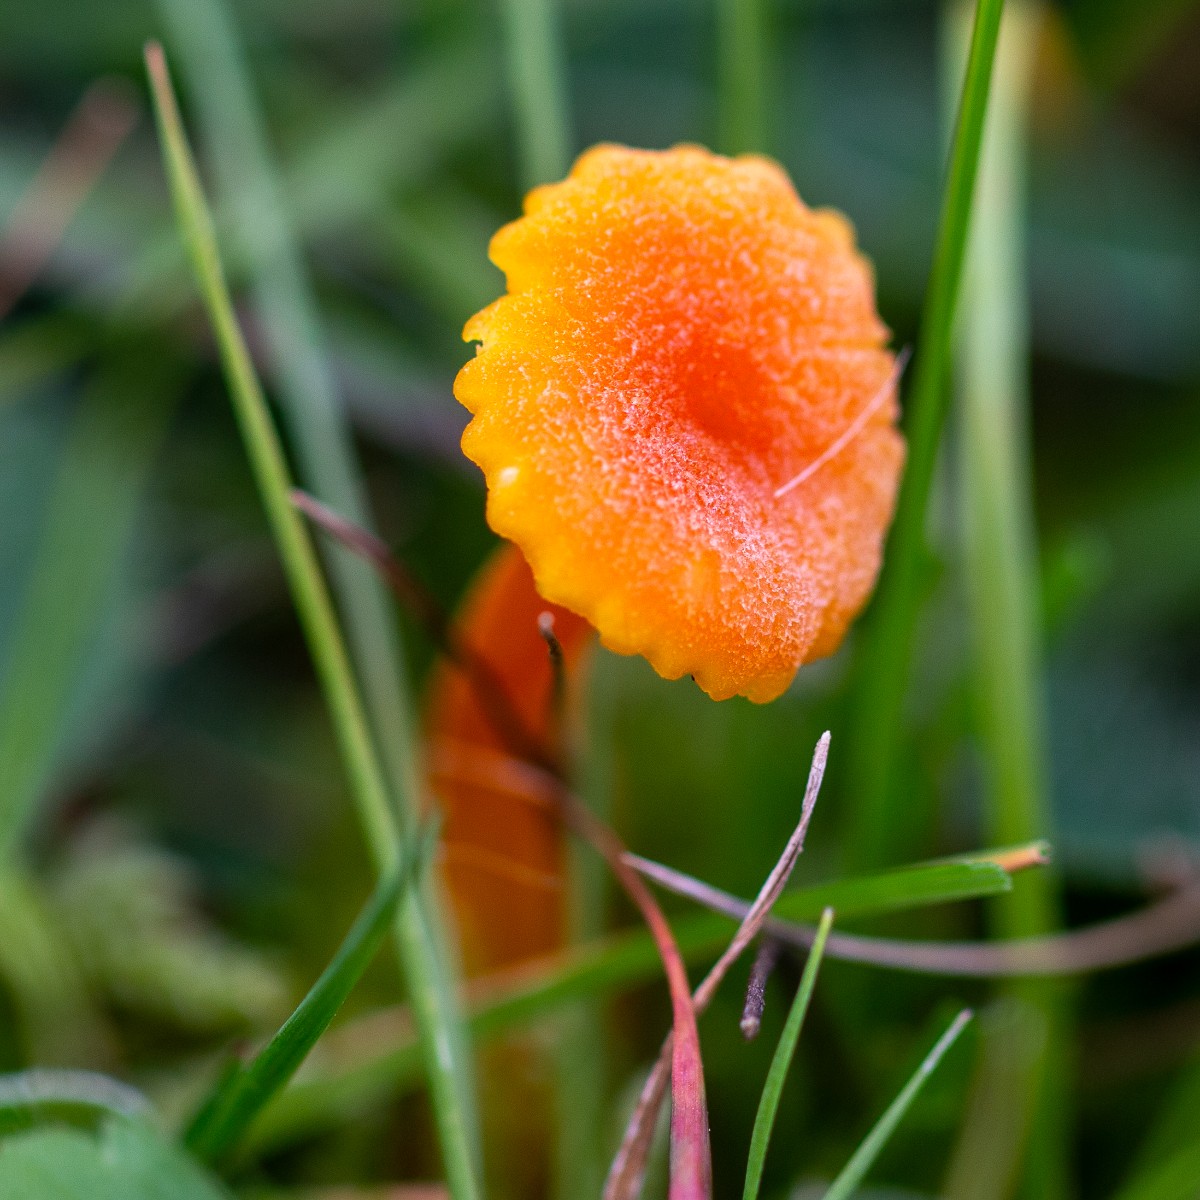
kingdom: Fungi
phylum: Basidiomycota
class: Agaricomycetes
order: Agaricales
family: Hygrophoraceae
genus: Hygrocybe
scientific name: Hygrocybe cantharellus
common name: kantarel-vokshat
